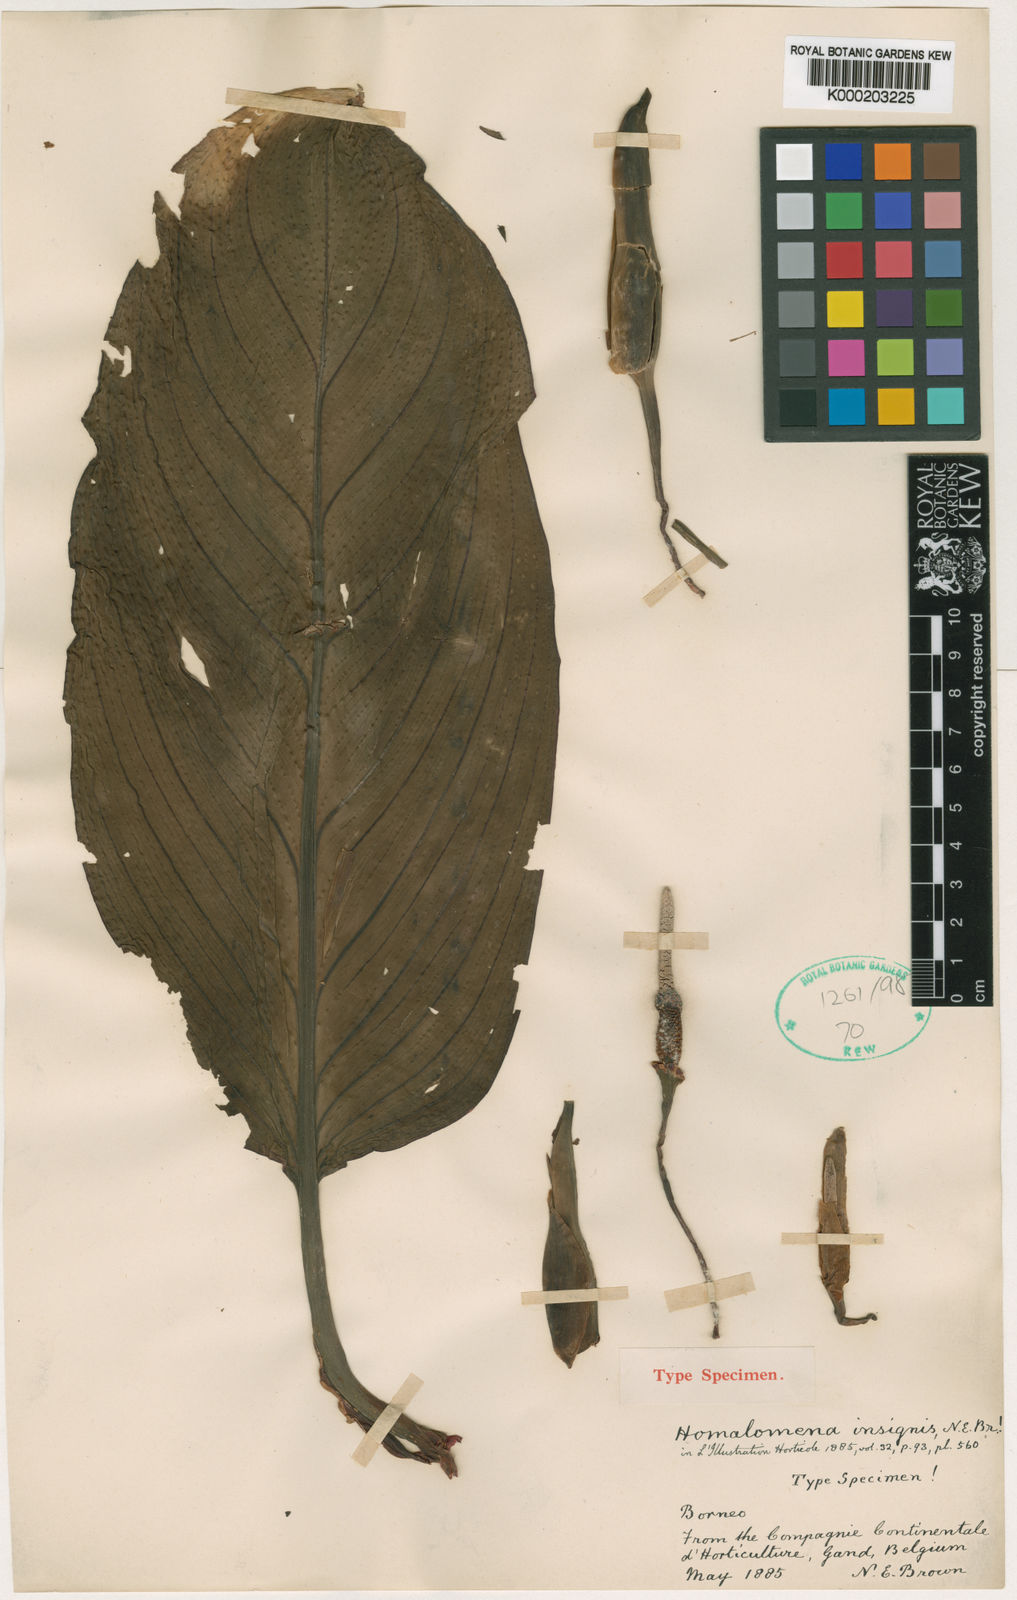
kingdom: Plantae
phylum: Tracheophyta
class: Liliopsida
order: Alismatales
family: Araceae
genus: Homalomena
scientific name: Homalomena insignis
